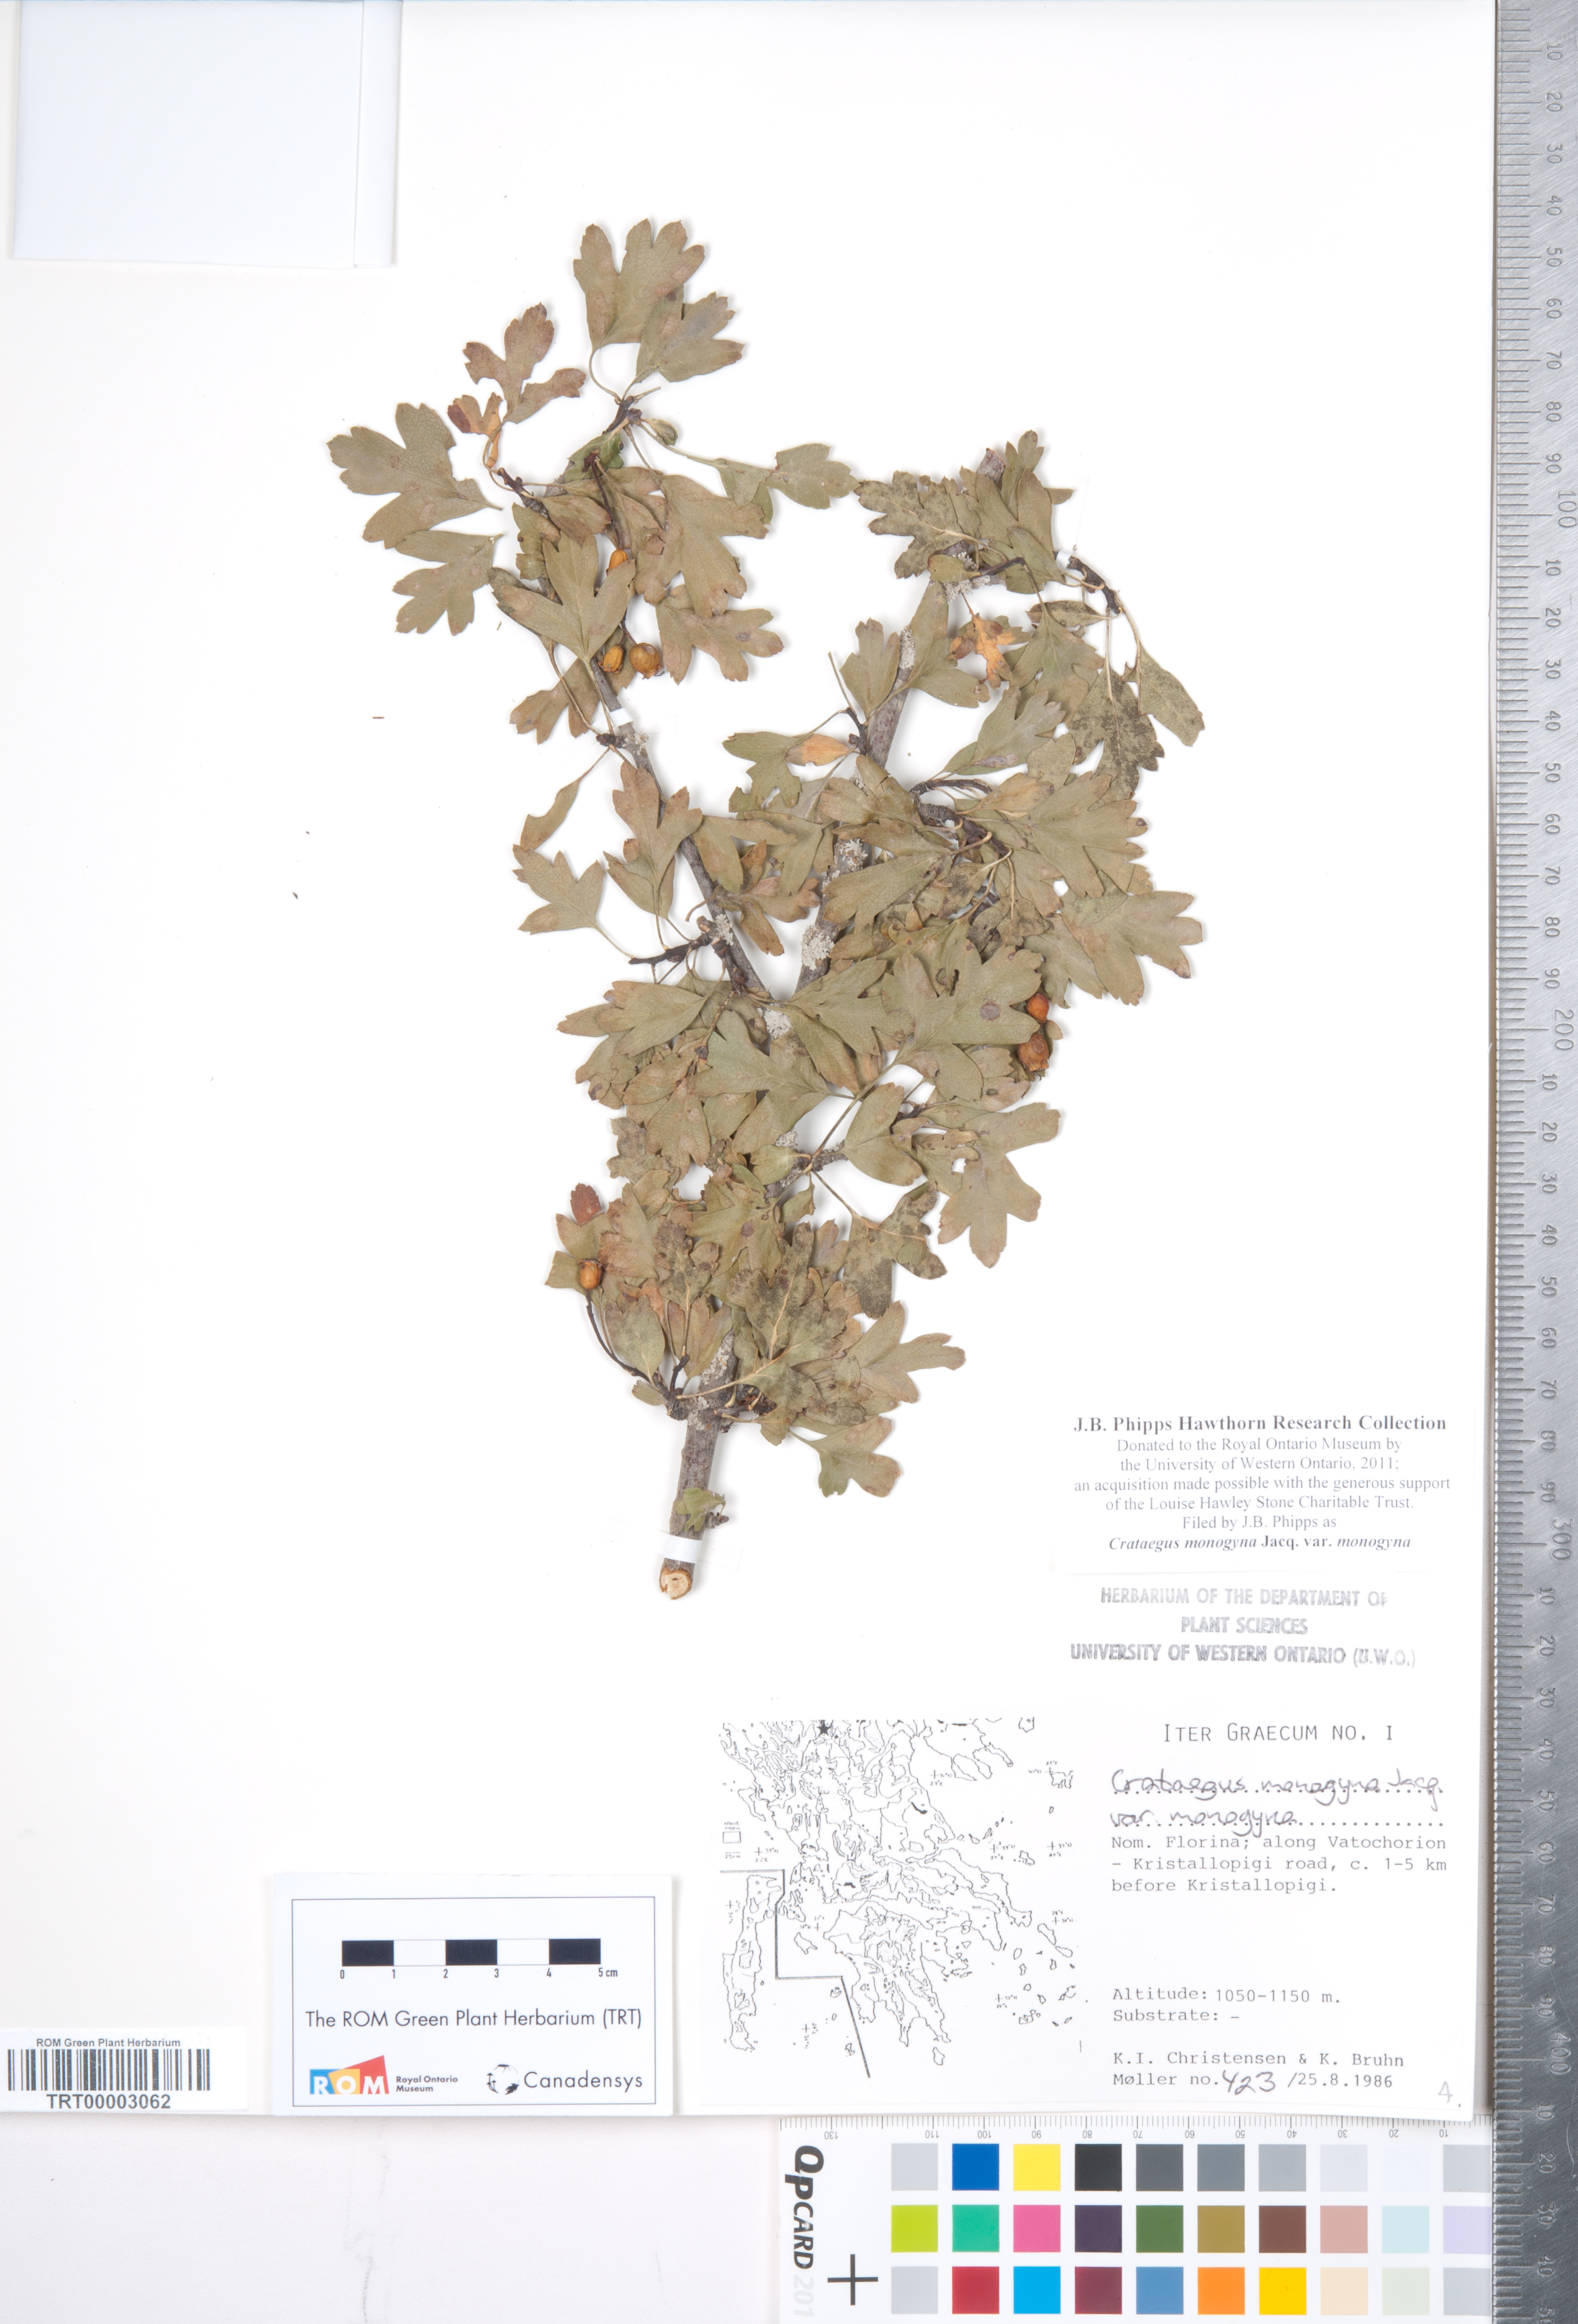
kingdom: Plantae
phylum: Tracheophyta
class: Magnoliopsida
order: Rosales
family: Rosaceae
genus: Crataegus
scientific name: Crataegus monogyna
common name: Hawthorn
